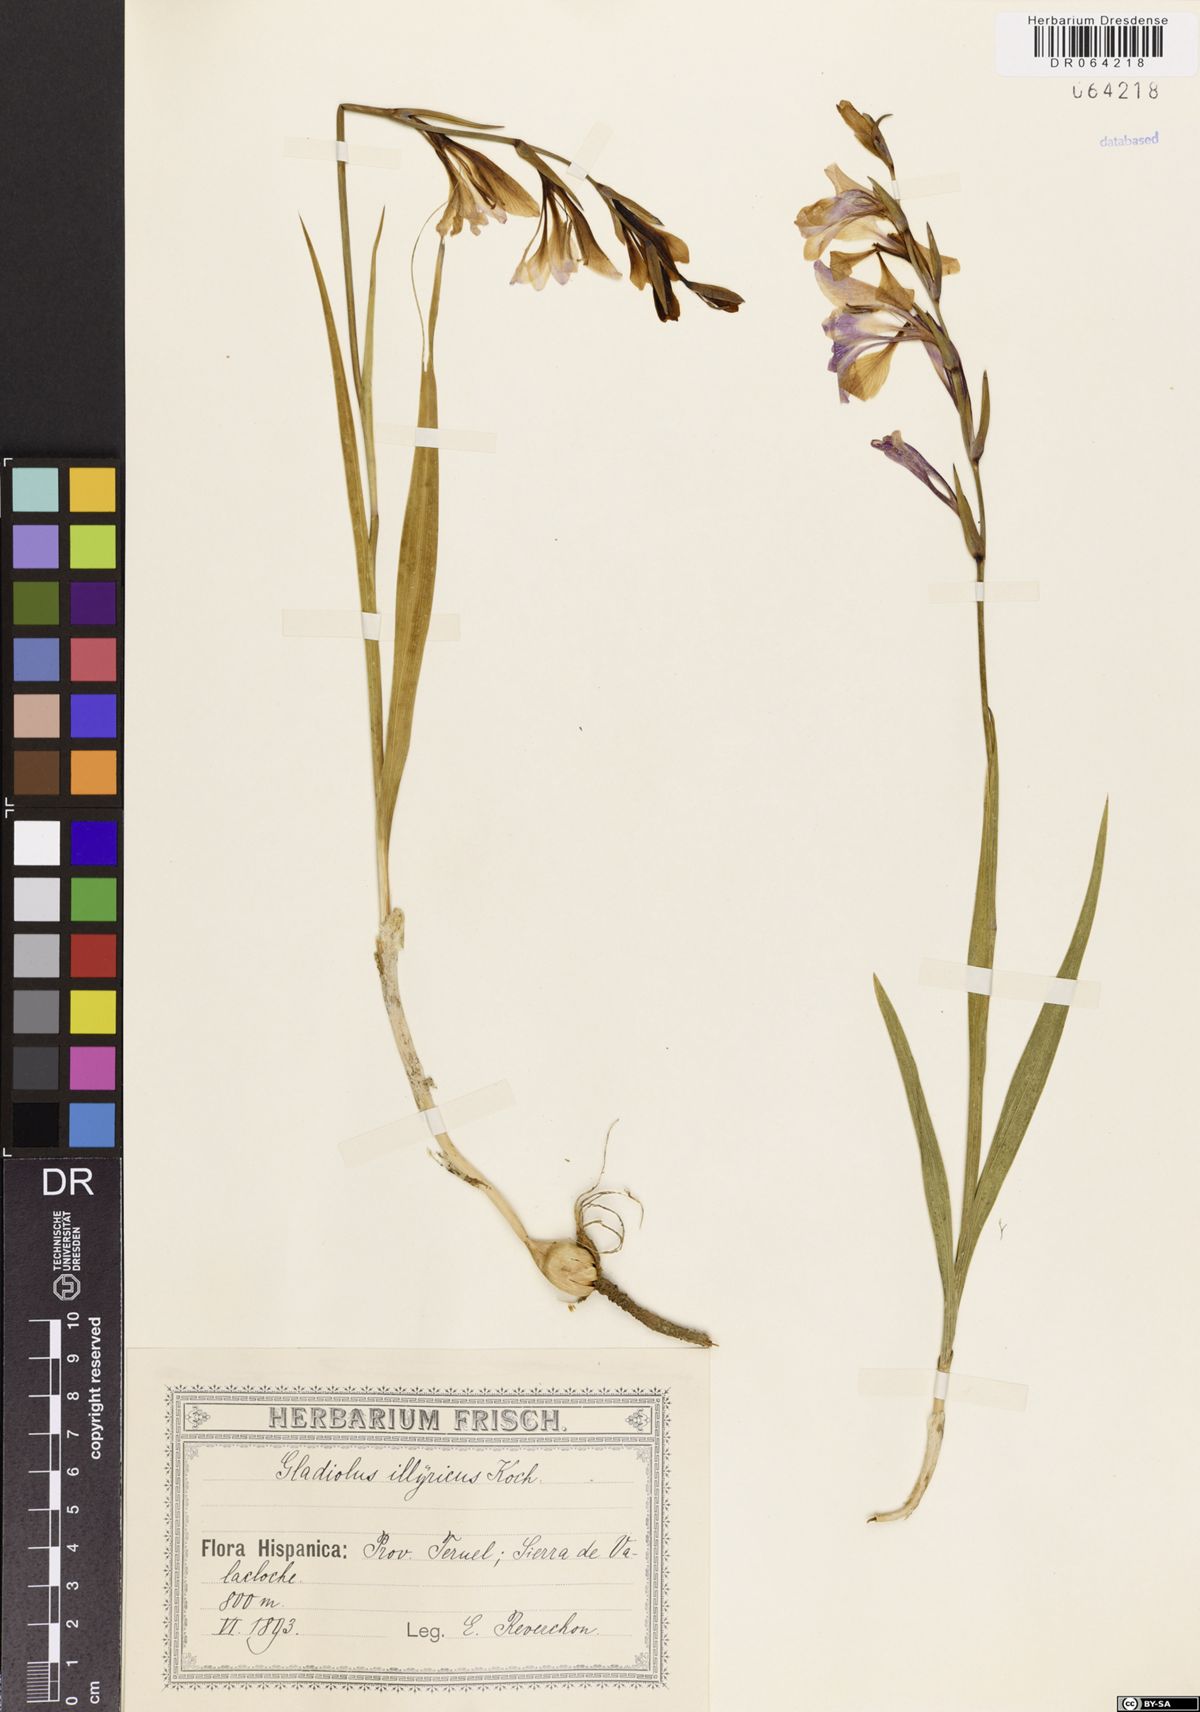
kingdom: Plantae
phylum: Tracheophyta
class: Liliopsida
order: Asparagales
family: Iridaceae
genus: Gladiolus
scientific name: Gladiolus illyricus
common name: Wild gladiolus
